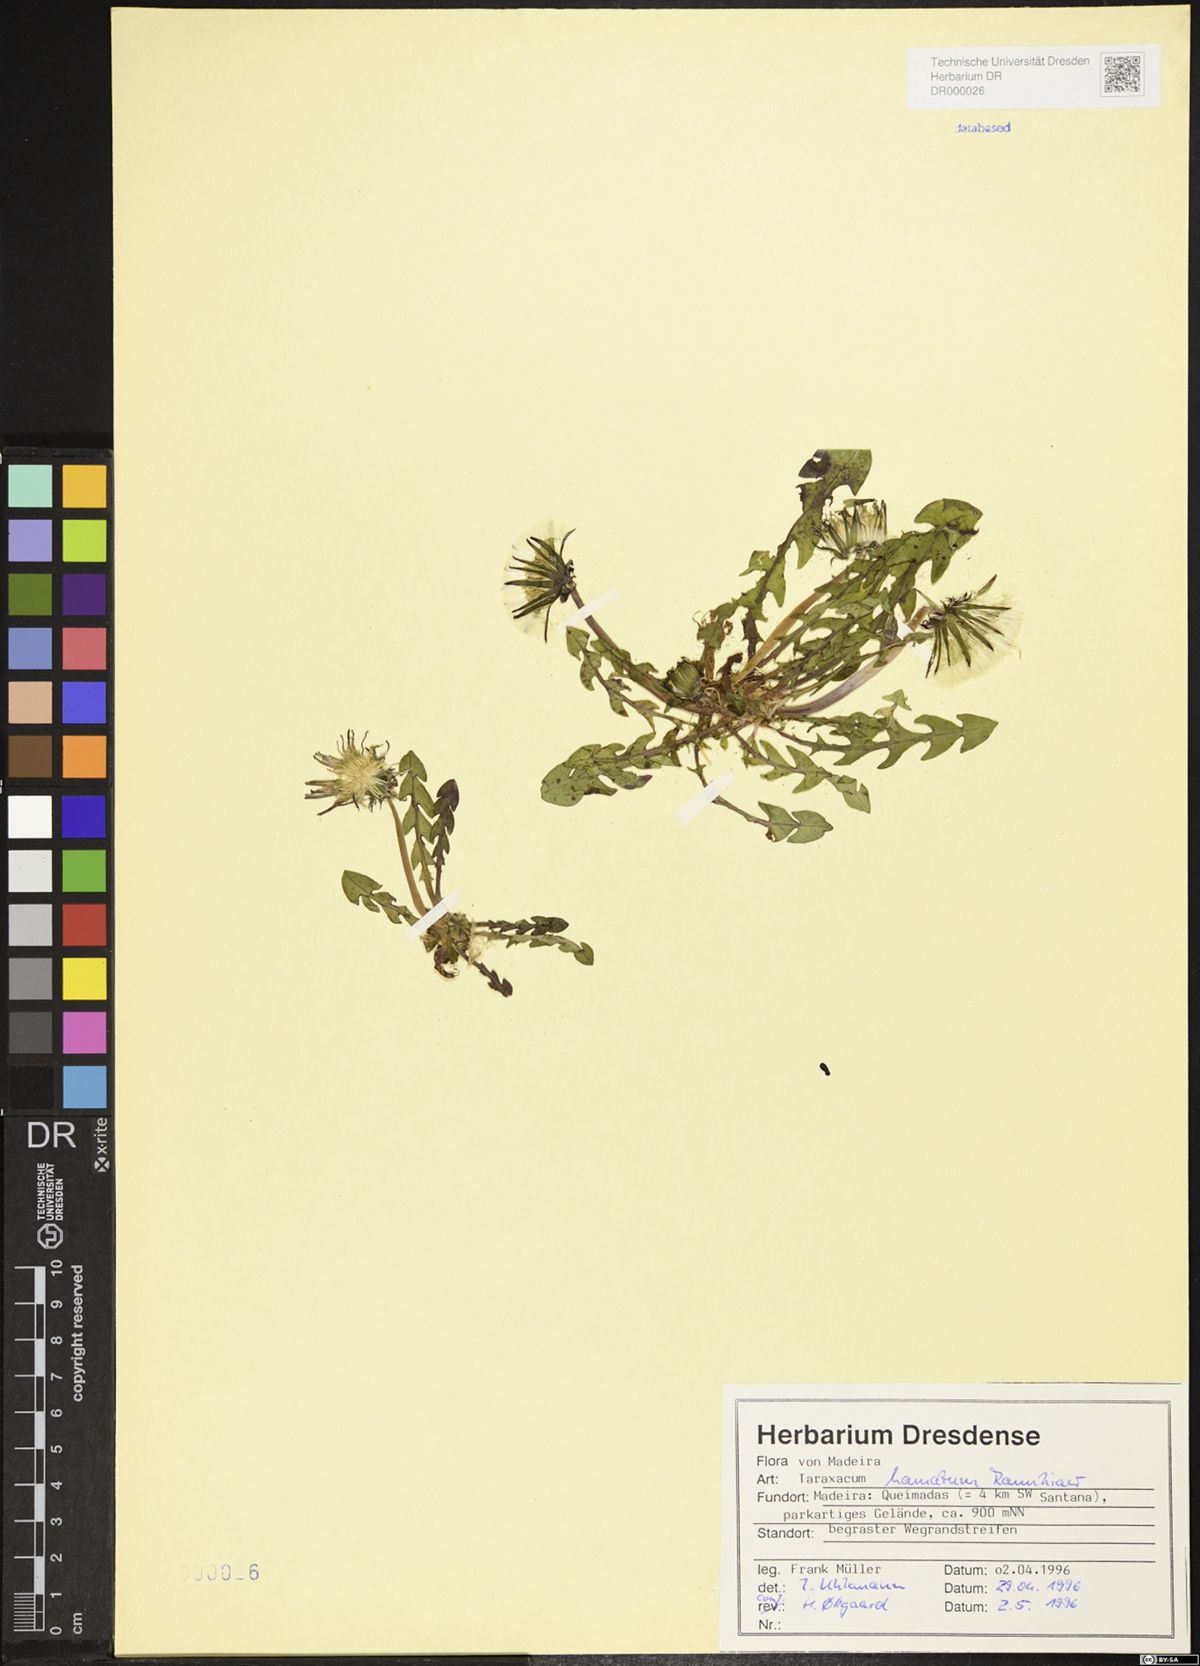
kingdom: Plantae
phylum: Tracheophyta
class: Magnoliopsida
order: Asterales
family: Asteraceae
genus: Taraxacum
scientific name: Taraxacum hamatum
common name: Hook-lobed dandelion
